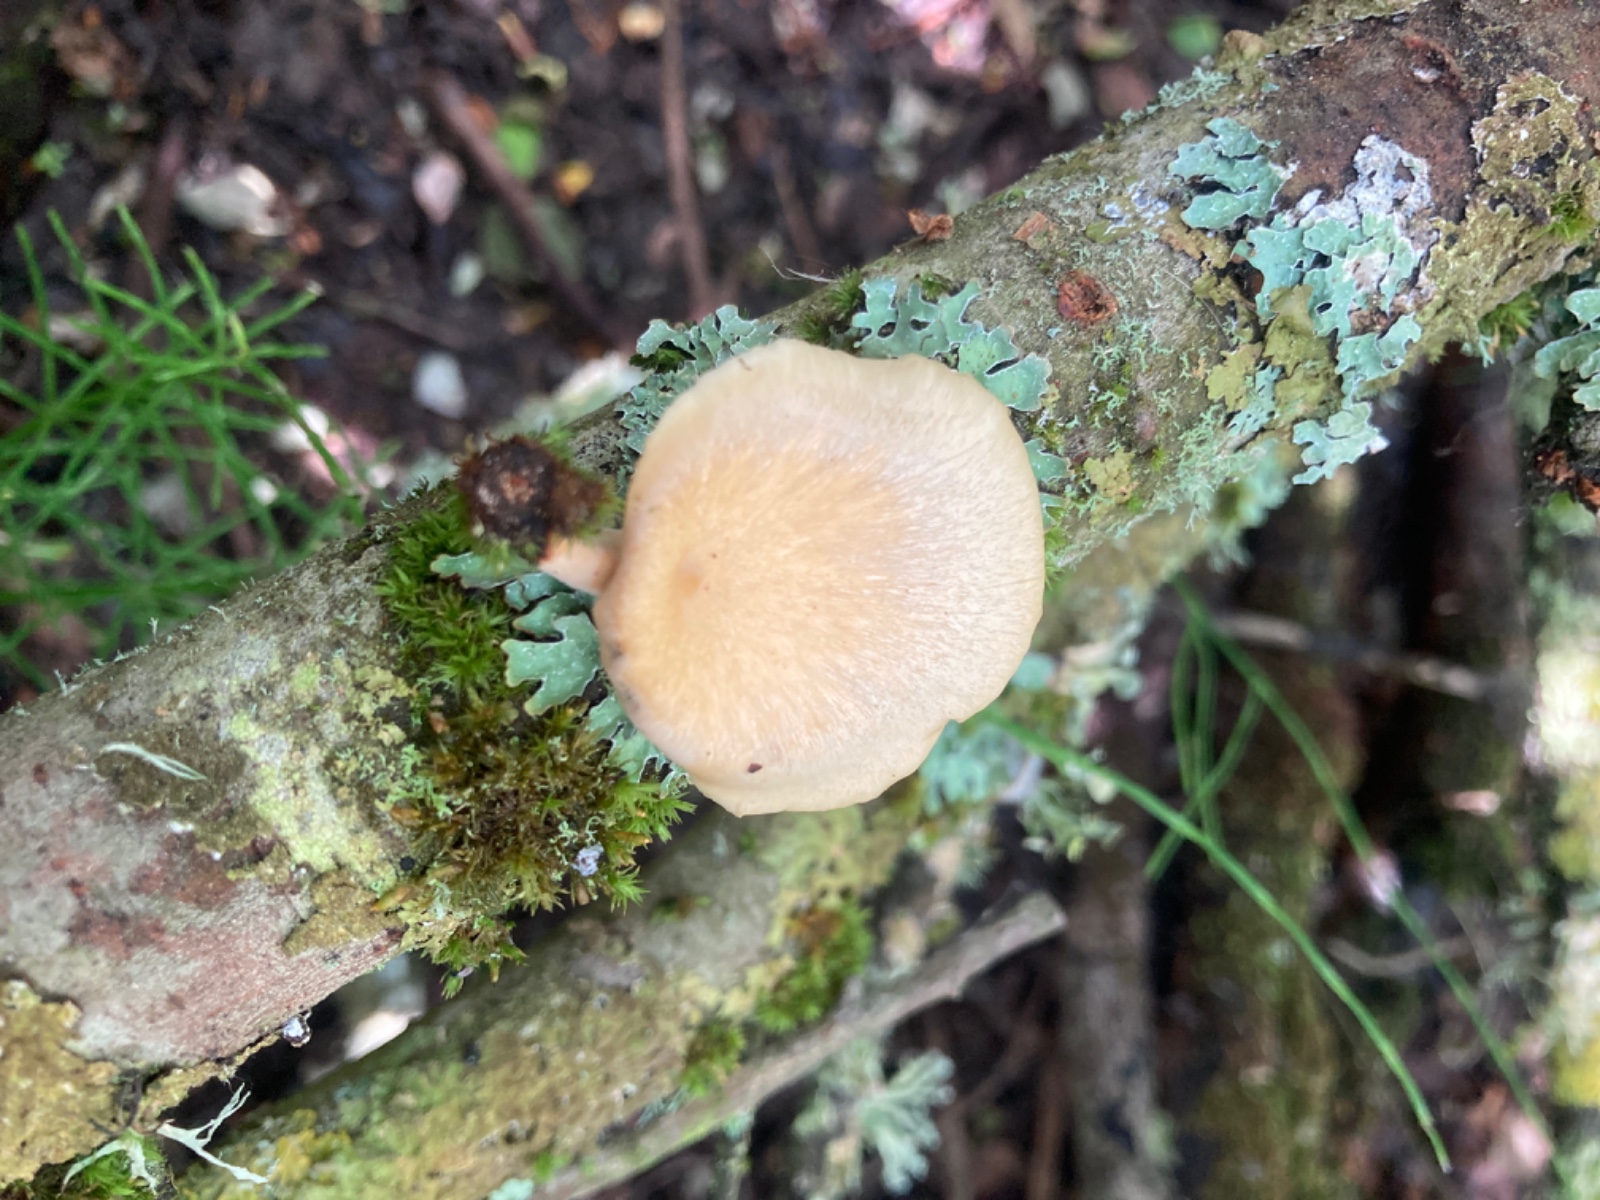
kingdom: Fungi
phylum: Basidiomycota
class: Agaricomycetes
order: Polyporales
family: Polyporaceae
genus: Cerioporus
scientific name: Cerioporus varius
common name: foranderlig stilkporesvamp
